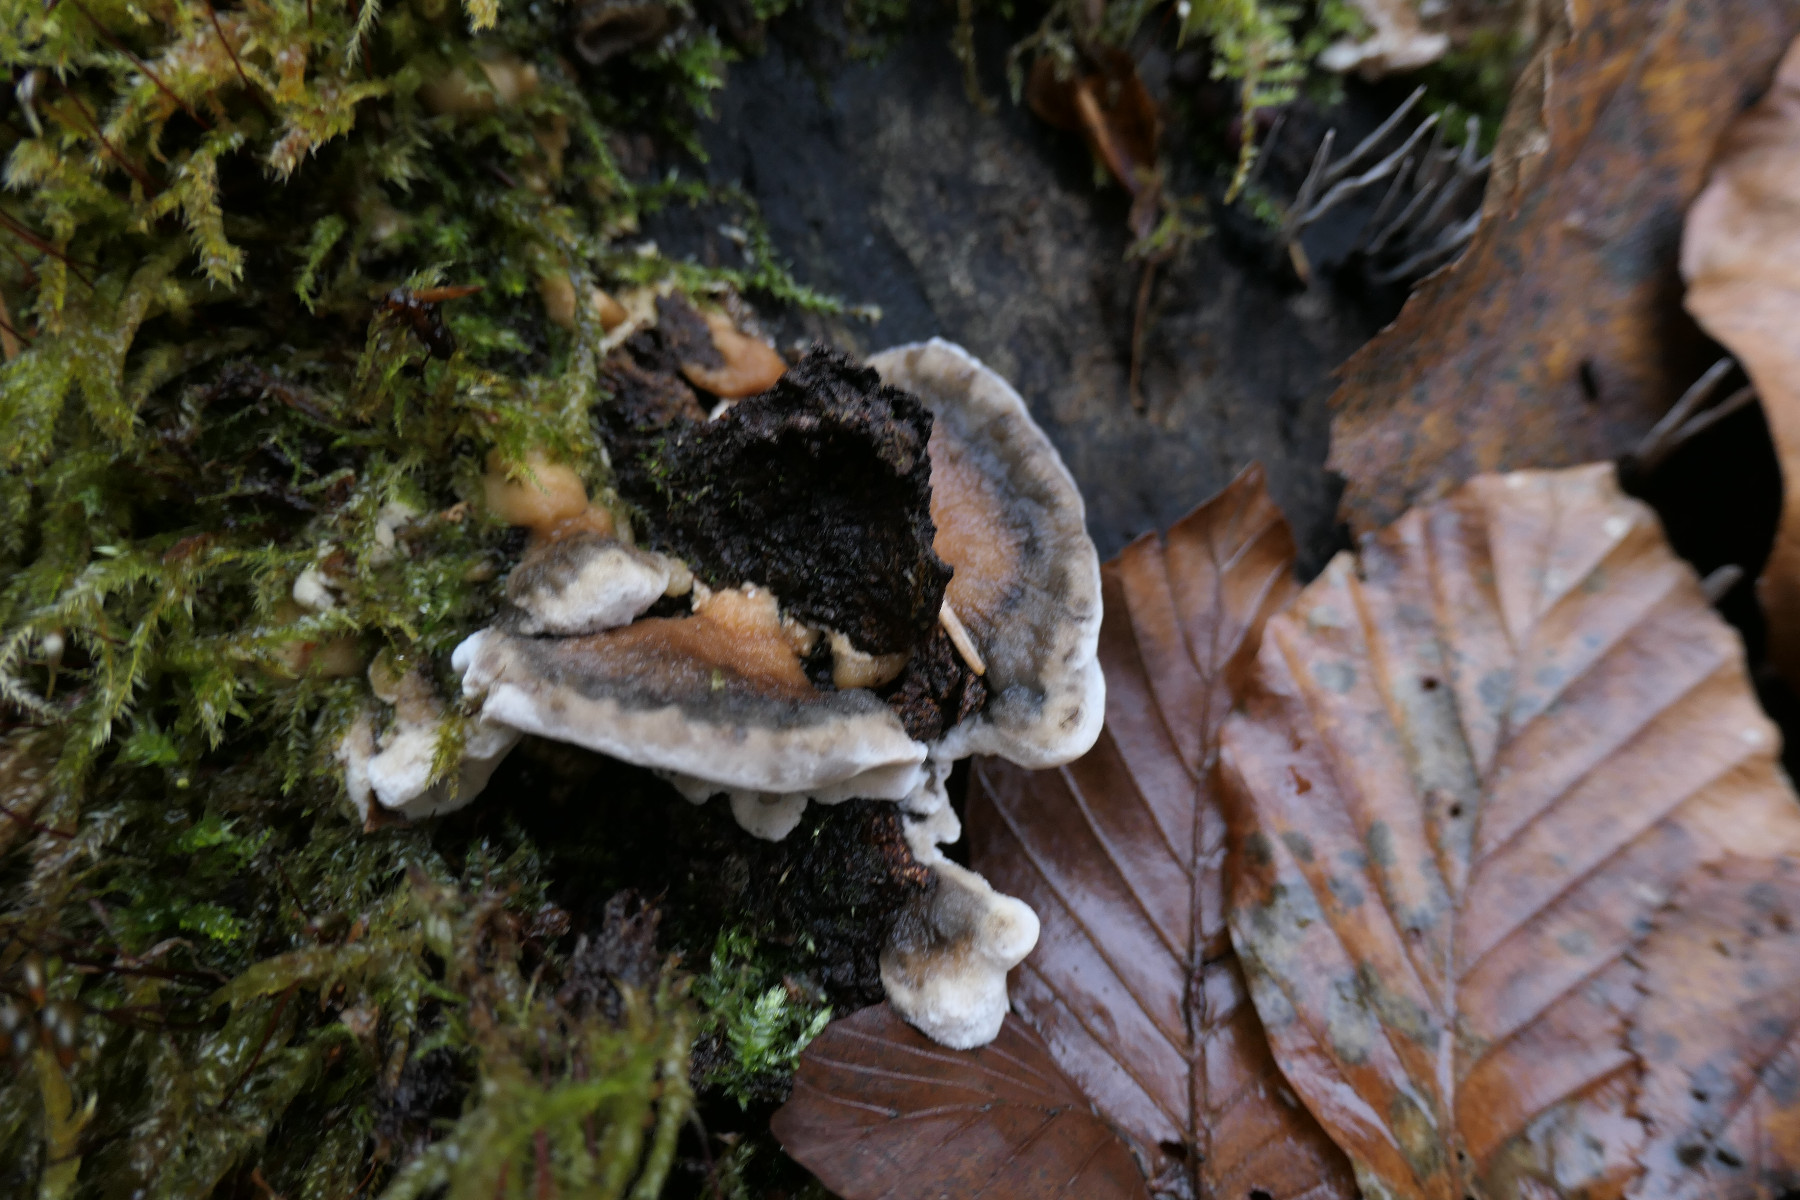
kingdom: Fungi
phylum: Basidiomycota
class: Agaricomycetes
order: Polyporales
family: Phanerochaetaceae
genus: Bjerkandera
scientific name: Bjerkandera adusta
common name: sveden sodporesvamp
